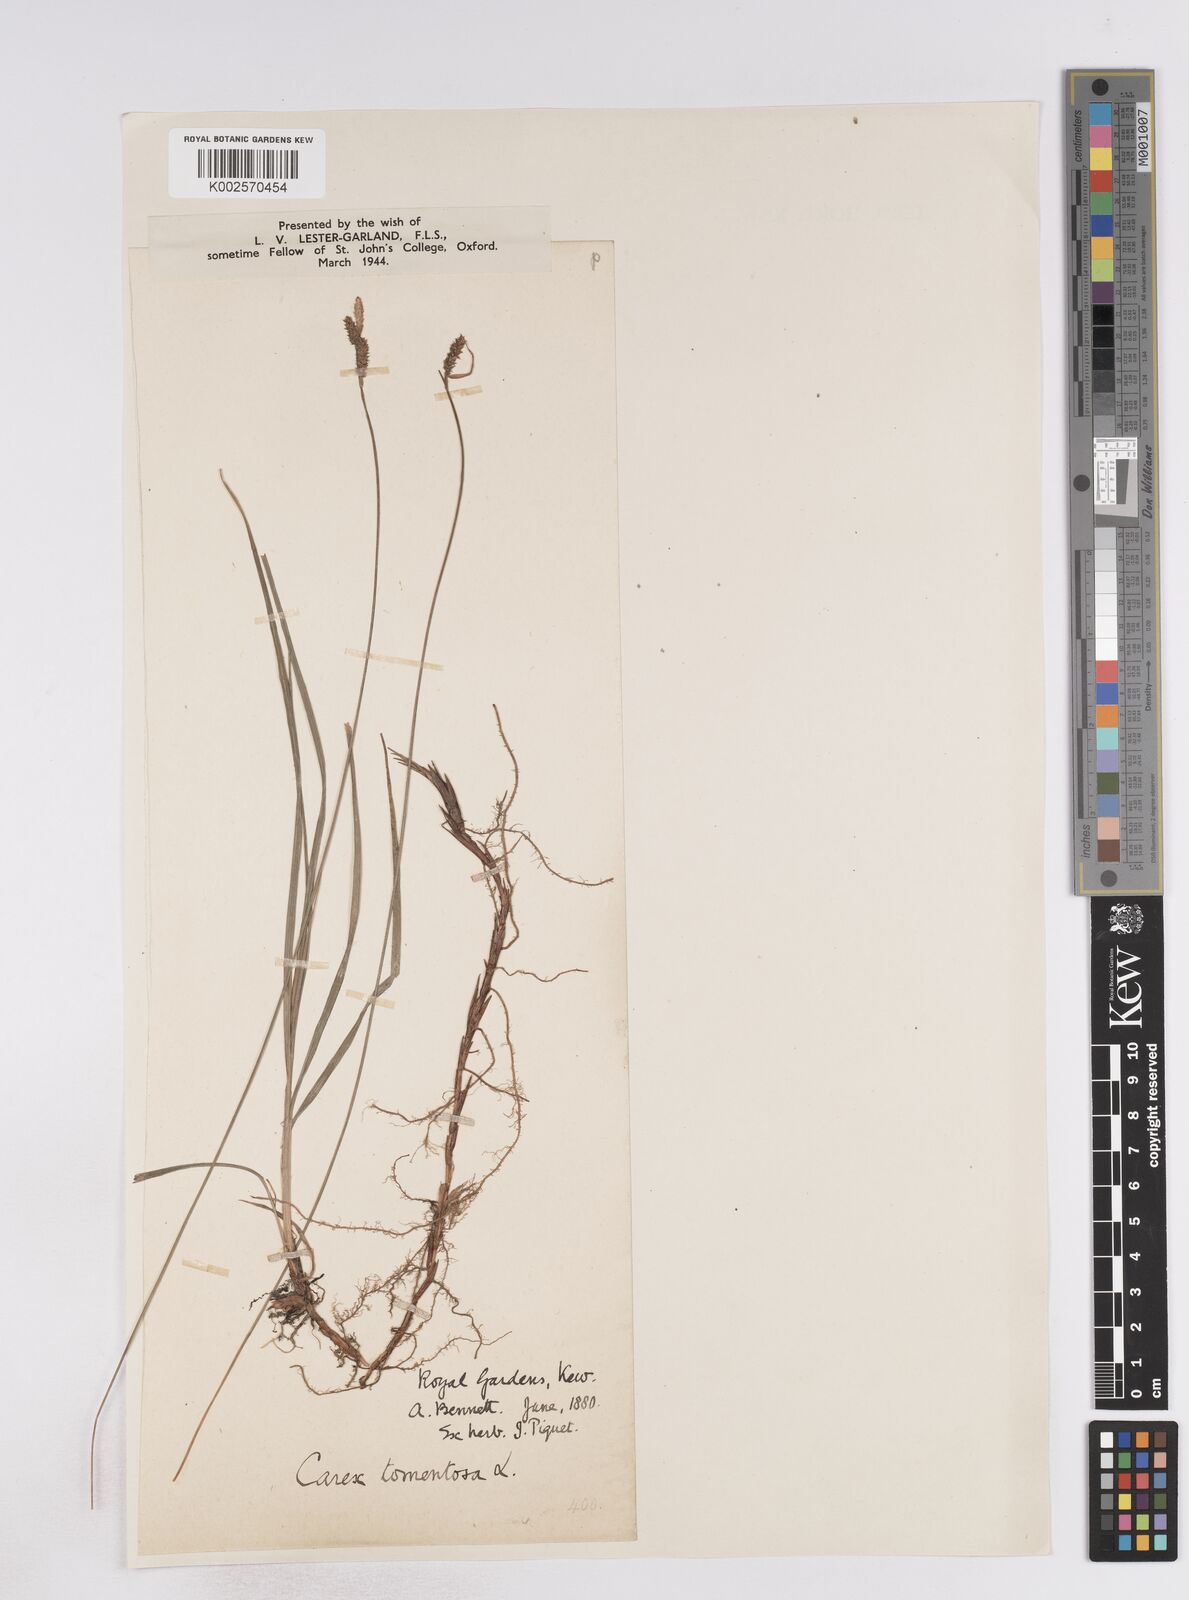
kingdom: Plantae
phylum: Tracheophyta
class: Liliopsida
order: Poales
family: Cyperaceae
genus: Carex
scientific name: Carex montana
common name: Soft-leaved sedge
